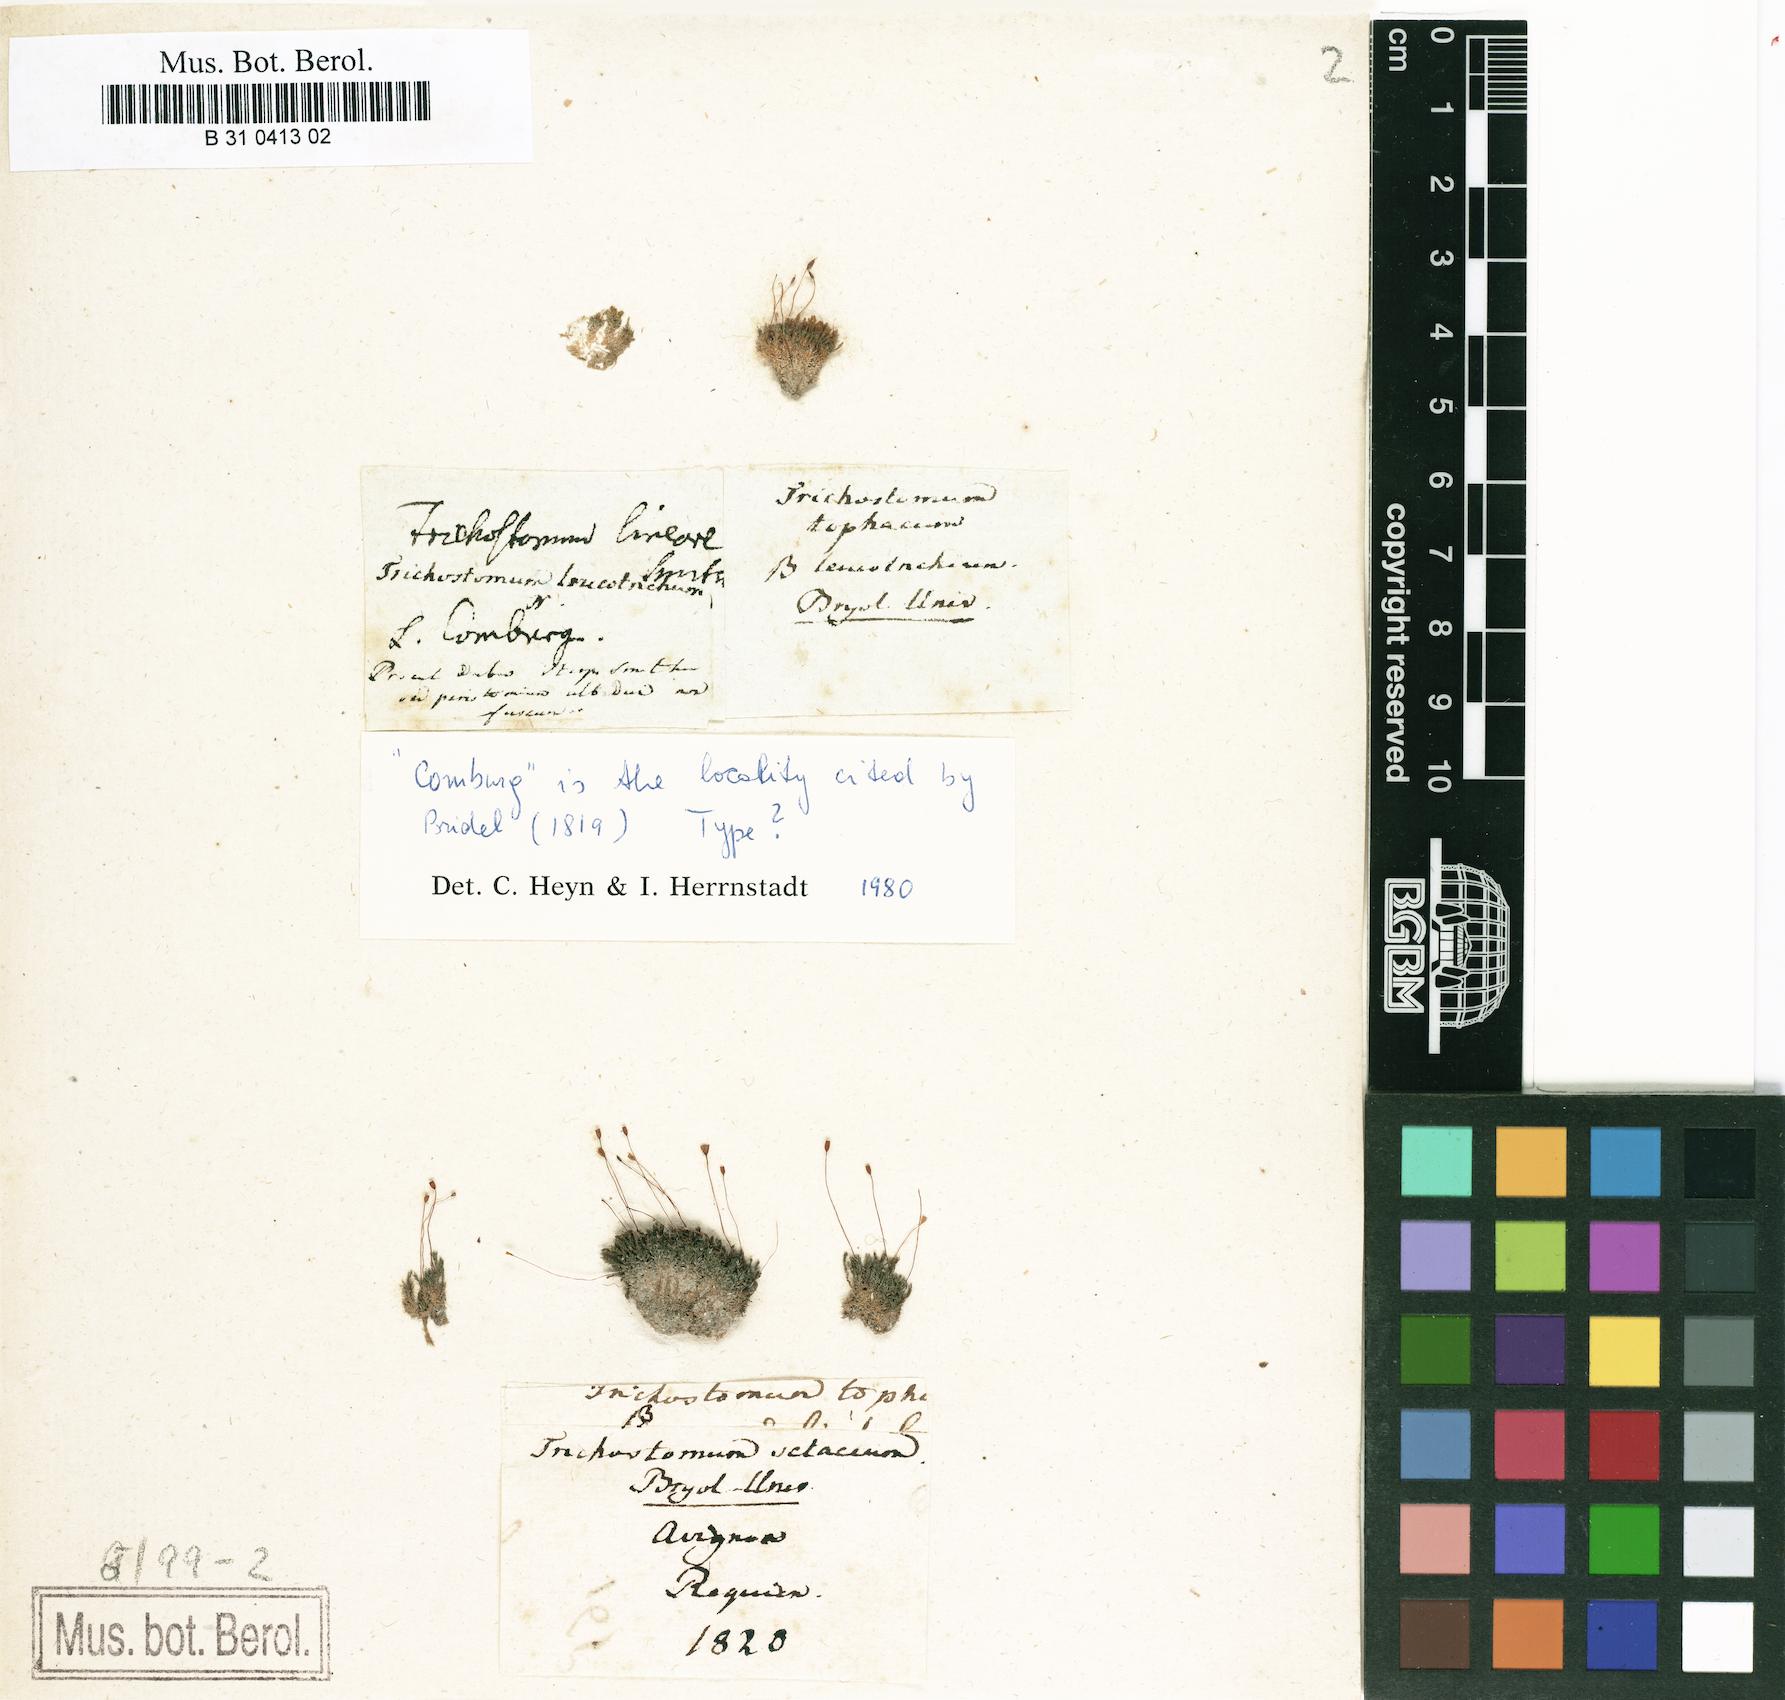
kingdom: Plantae
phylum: Bryophyta
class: Bryopsida
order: Pottiales
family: Pottiaceae
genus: Geheebia
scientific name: Geheebia tophacea
